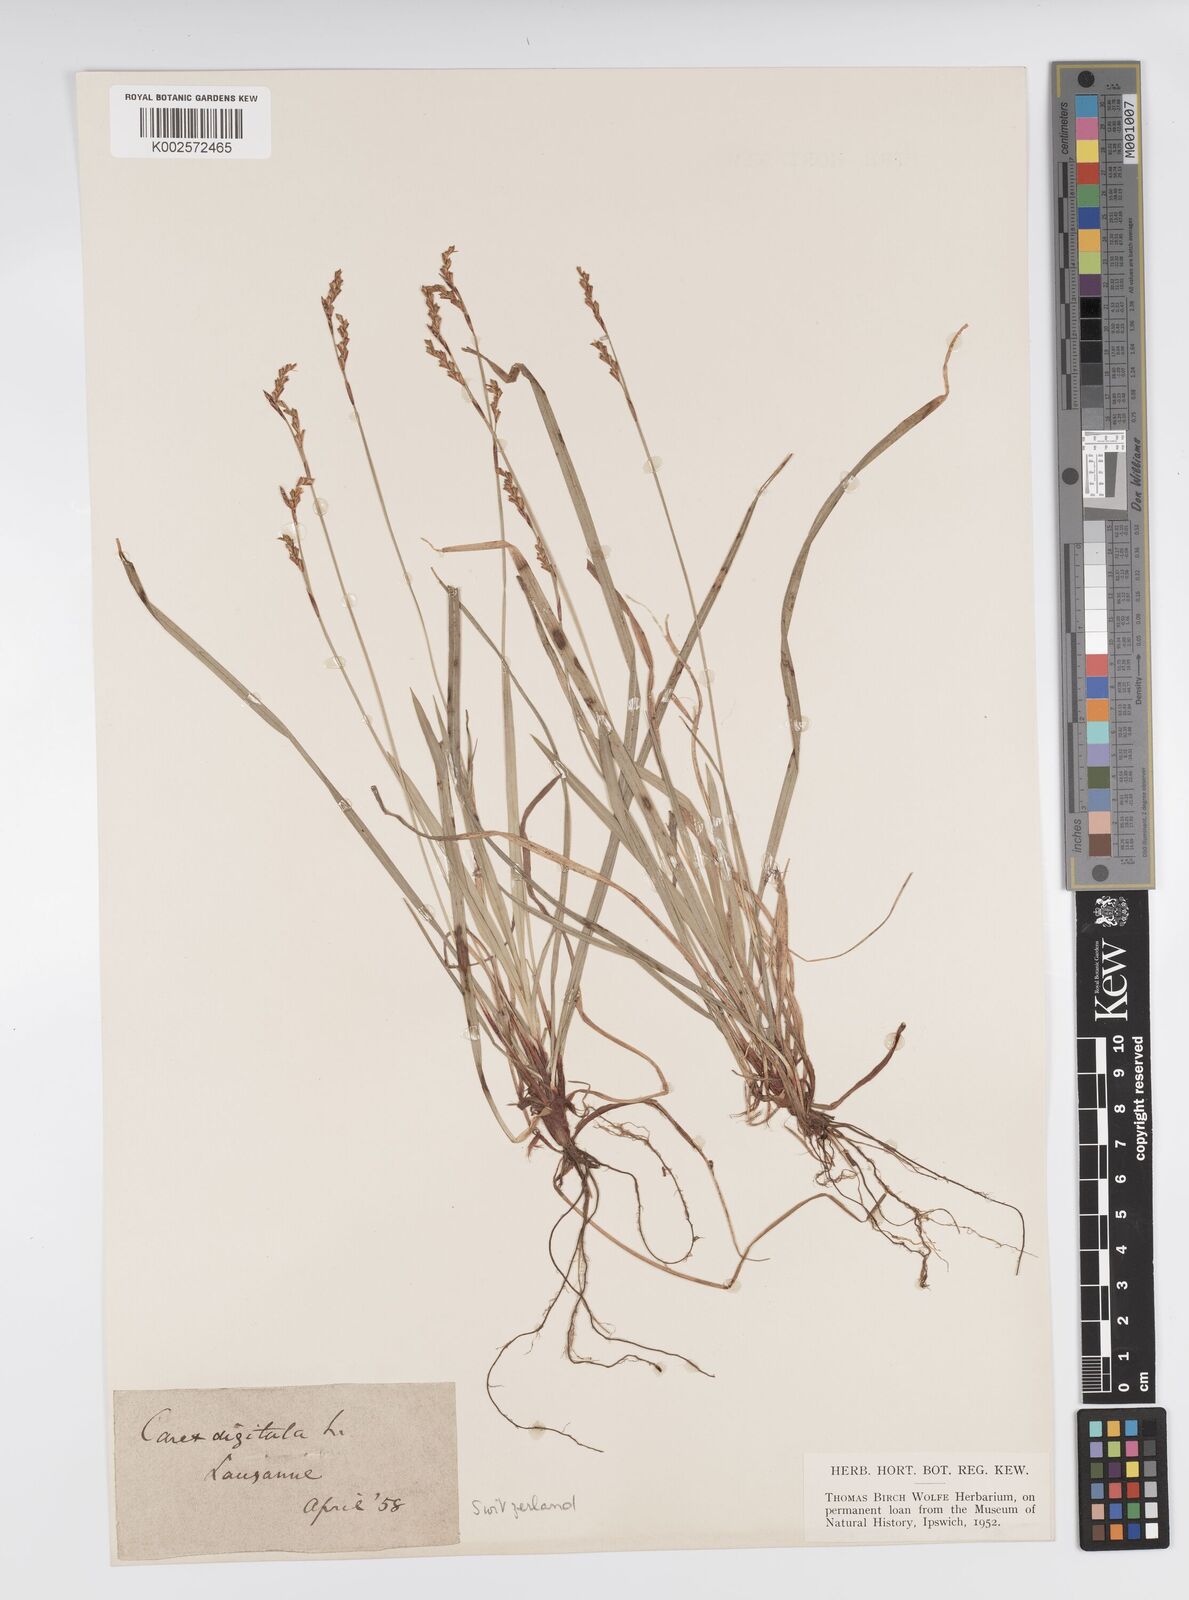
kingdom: Plantae
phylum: Tracheophyta
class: Liliopsida
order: Poales
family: Cyperaceae
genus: Carex
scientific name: Carex digitata
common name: Fingered sedge
